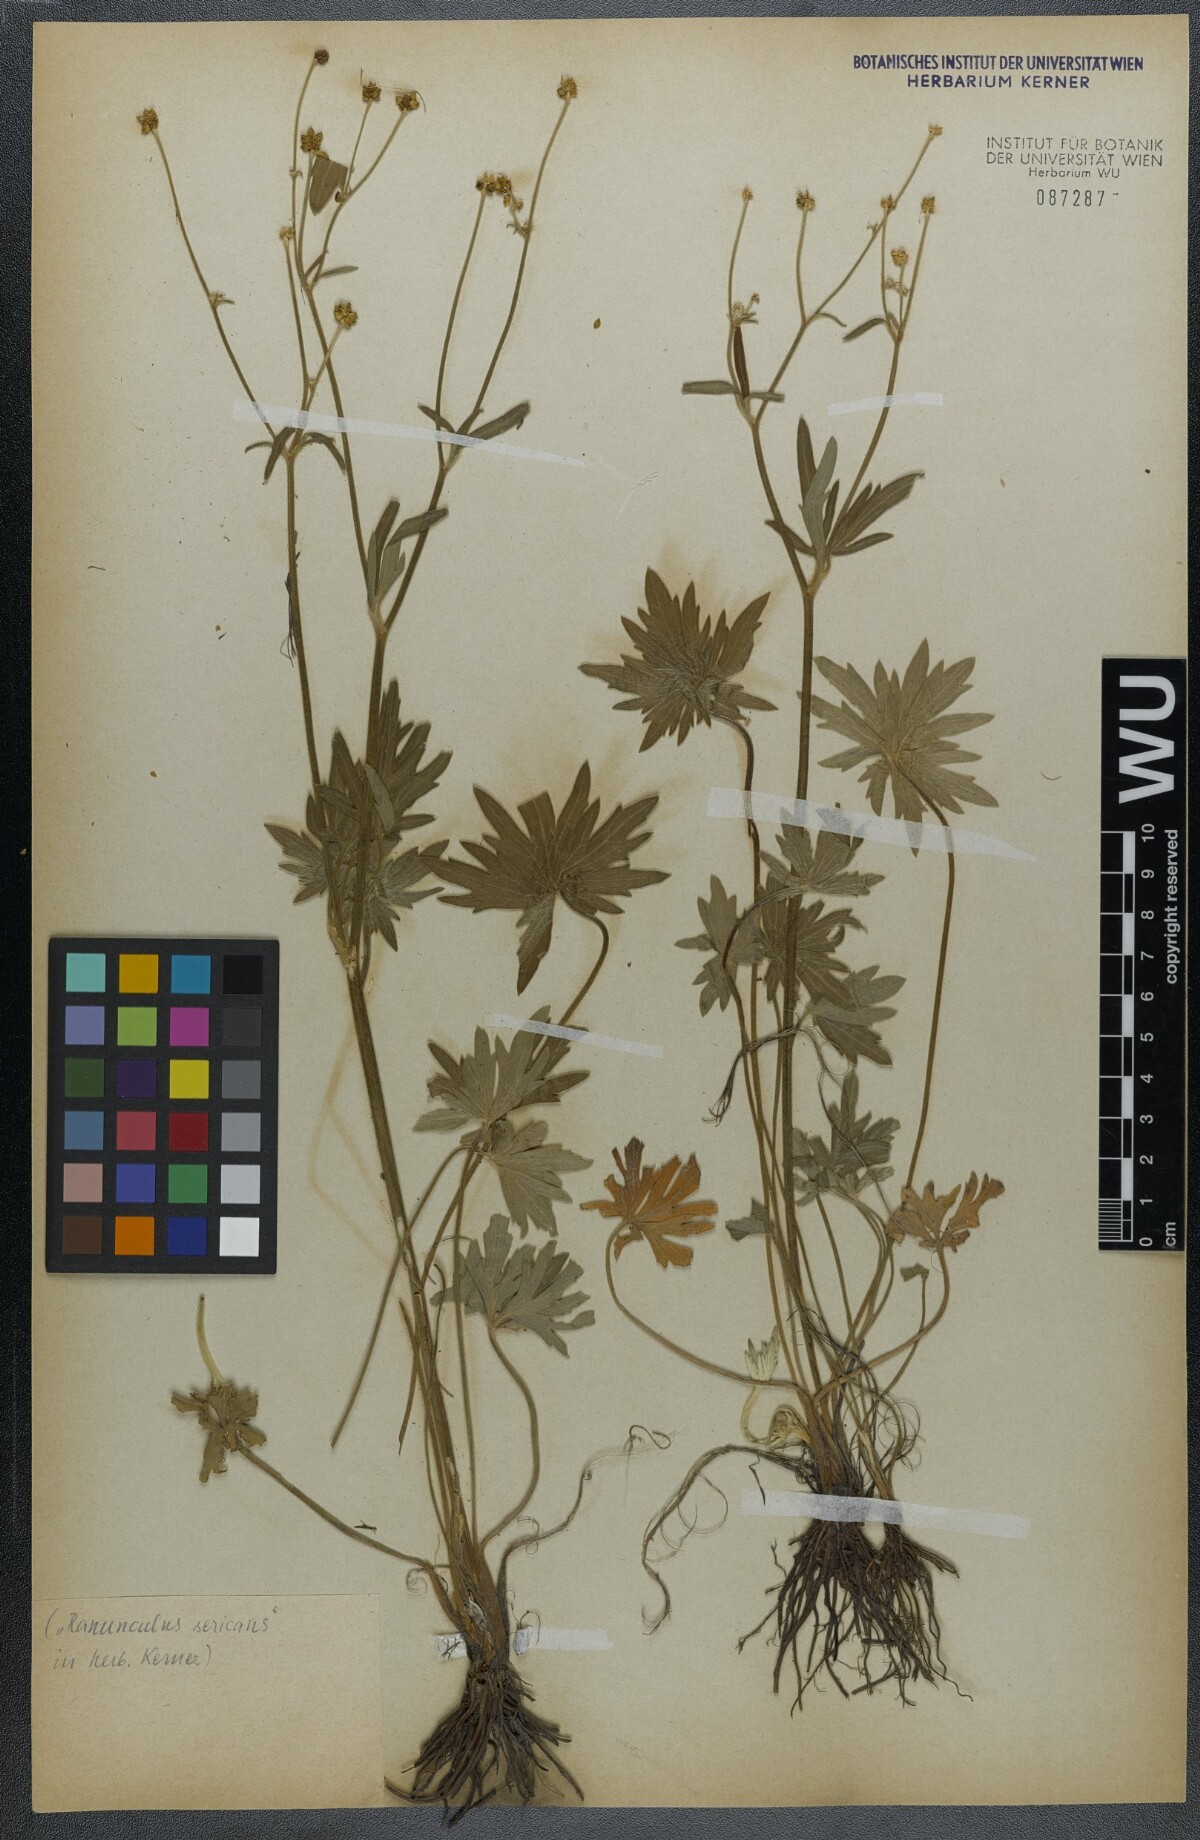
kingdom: Plantae
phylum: Tracheophyta
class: Magnoliopsida
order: Ranunculales
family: Ranunculaceae
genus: Ranunculus
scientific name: Ranunculus acris
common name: Meadow buttercup
